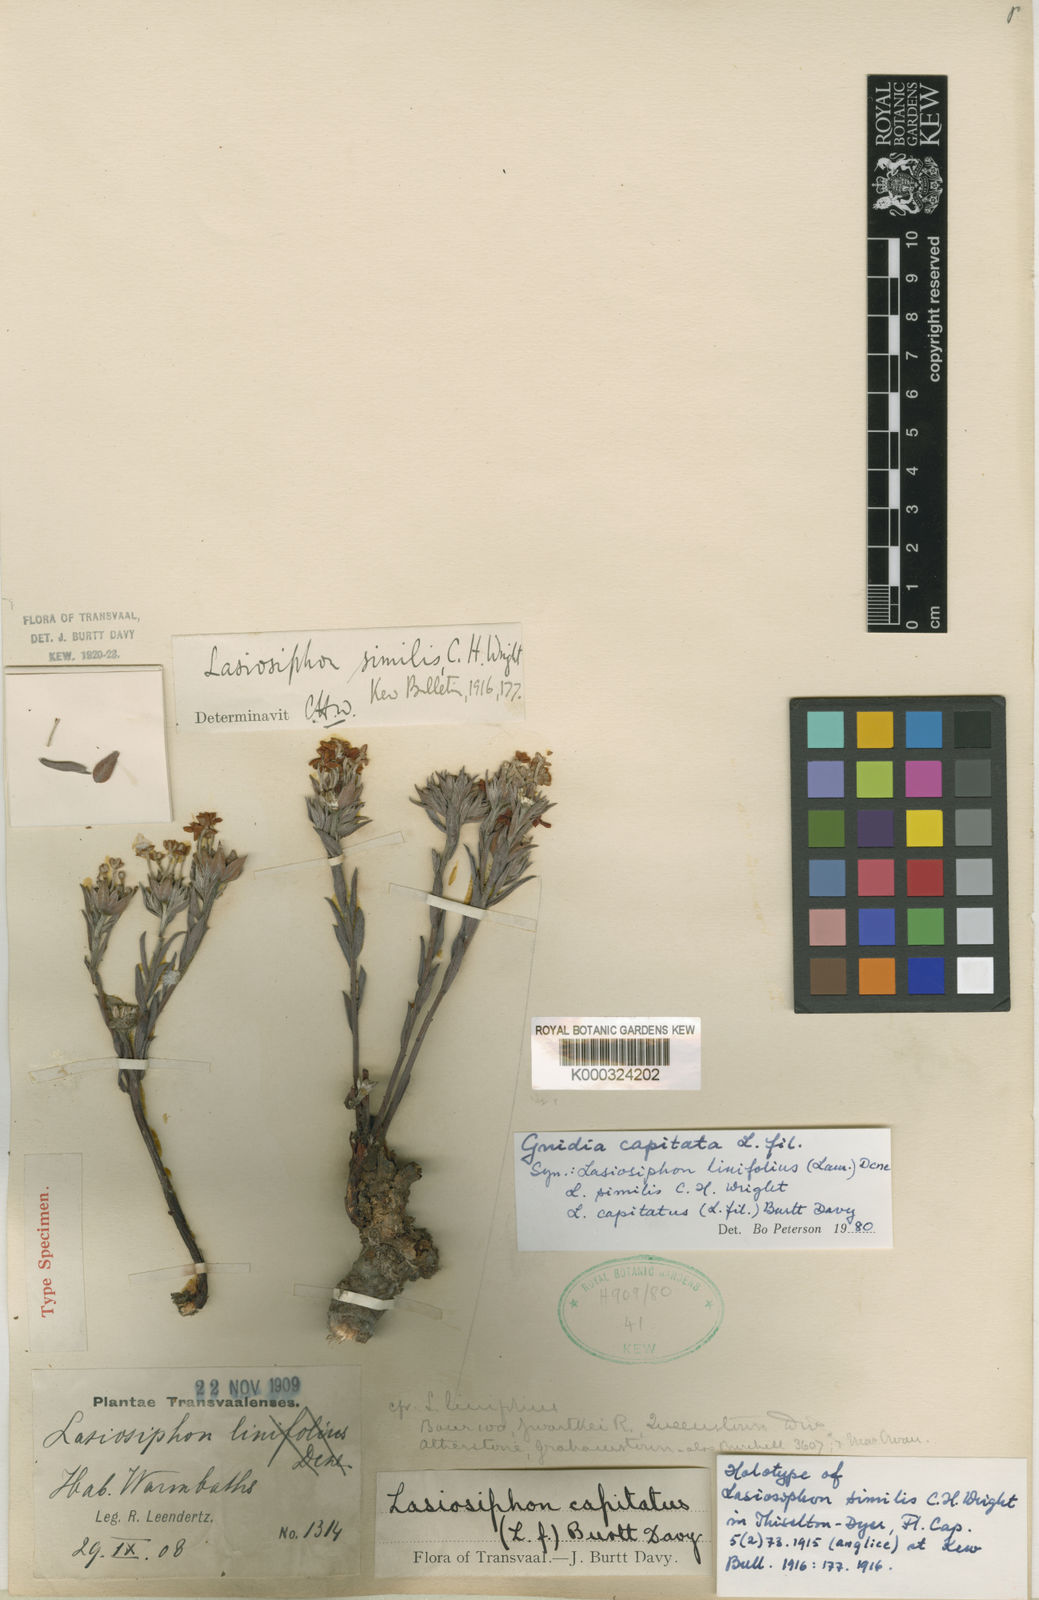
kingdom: Plantae
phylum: Tracheophyta
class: Magnoliopsida
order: Malvales
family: Thymelaeaceae
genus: Gnidia
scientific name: Gnidia capitata
